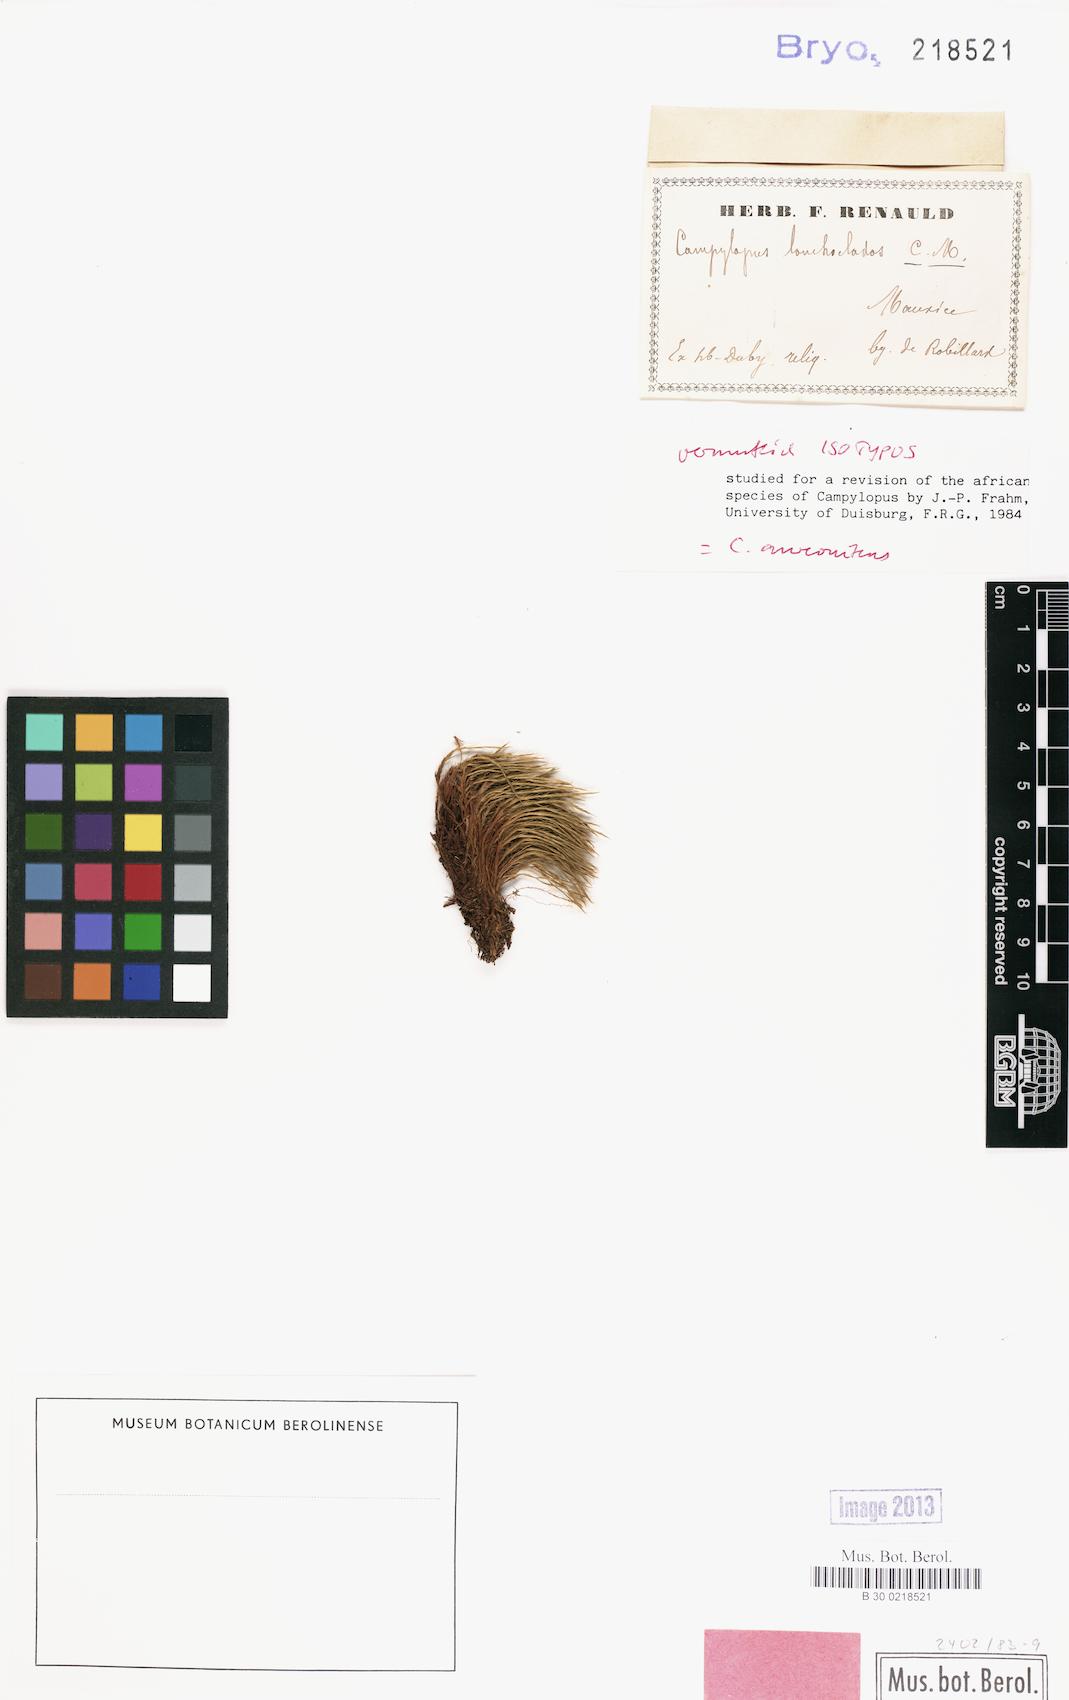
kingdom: Plantae
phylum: Bryophyta
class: Bryopsida
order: Dicranales
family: Leucobryaceae
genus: Campylopus
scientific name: Campylopus aureonitens
